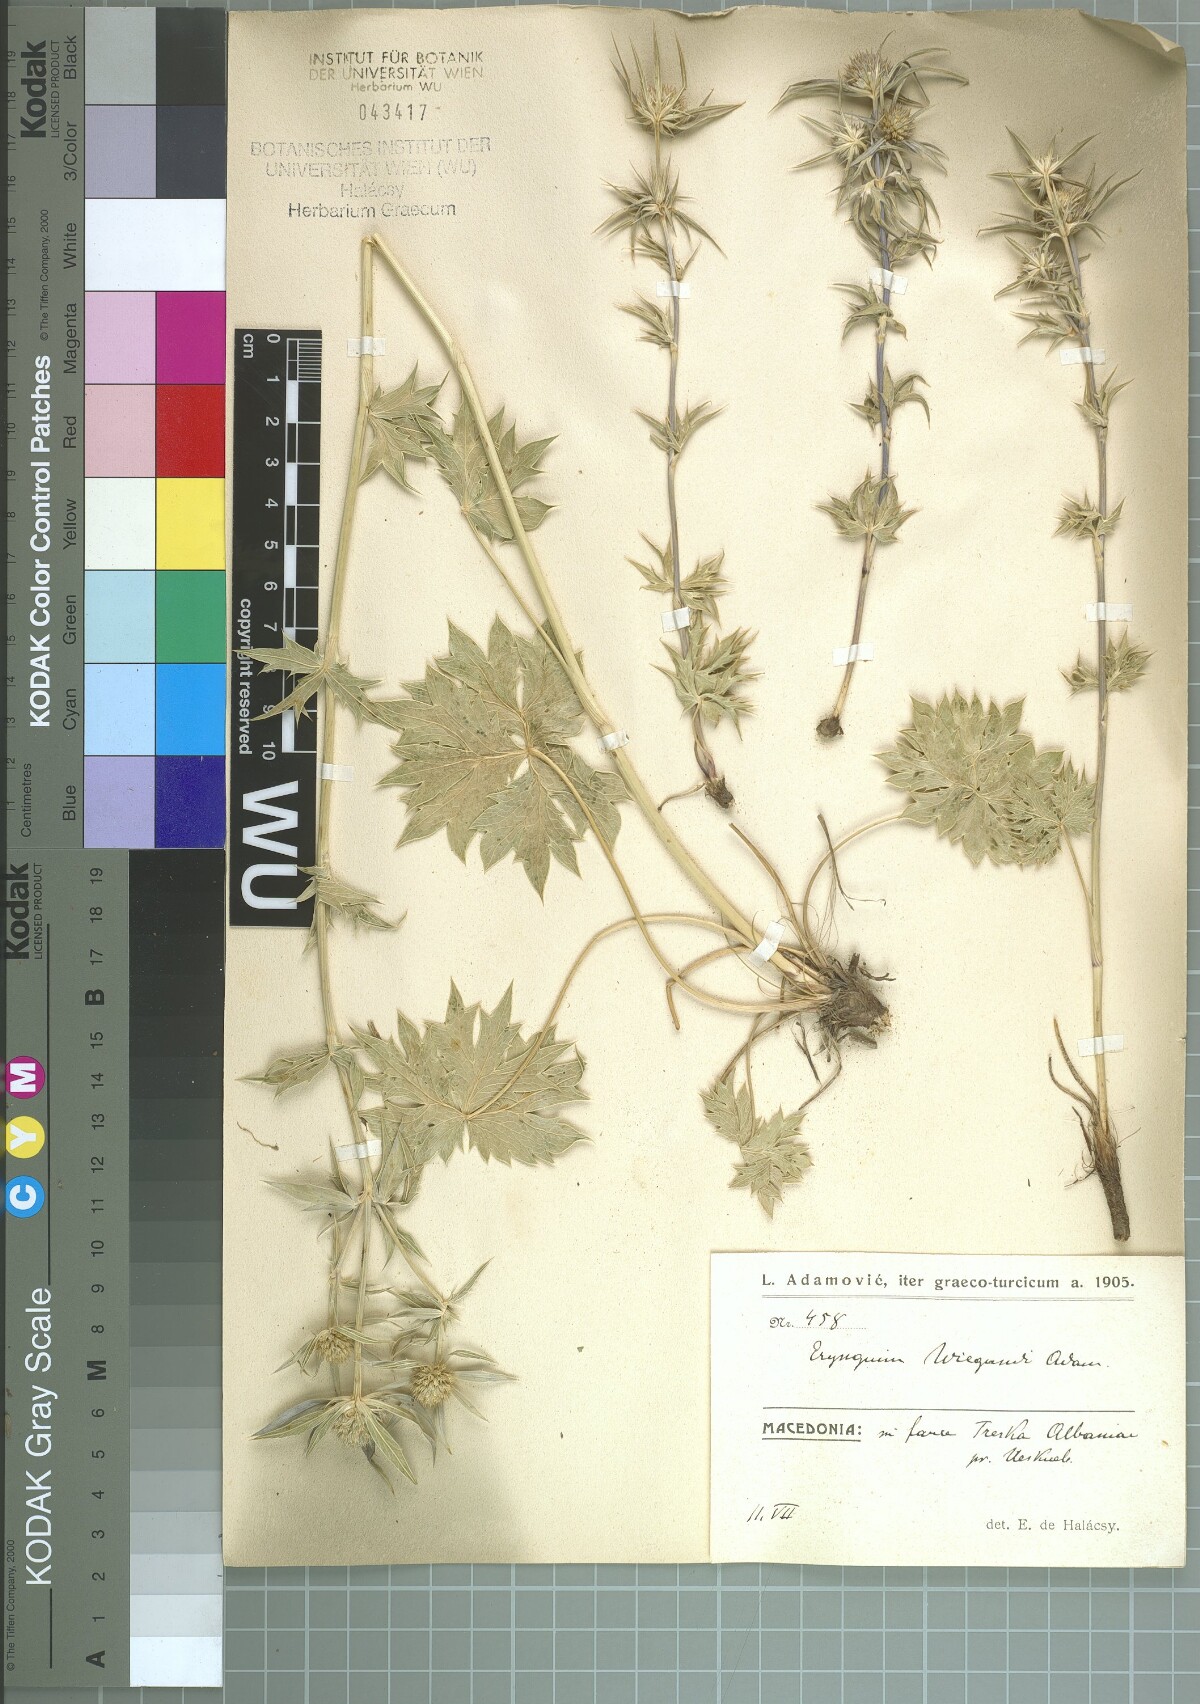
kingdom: Plantae
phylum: Tracheophyta
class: Magnoliopsida
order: Apiales
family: Apiaceae
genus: Eryngium
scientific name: Eryngium wiegandii
